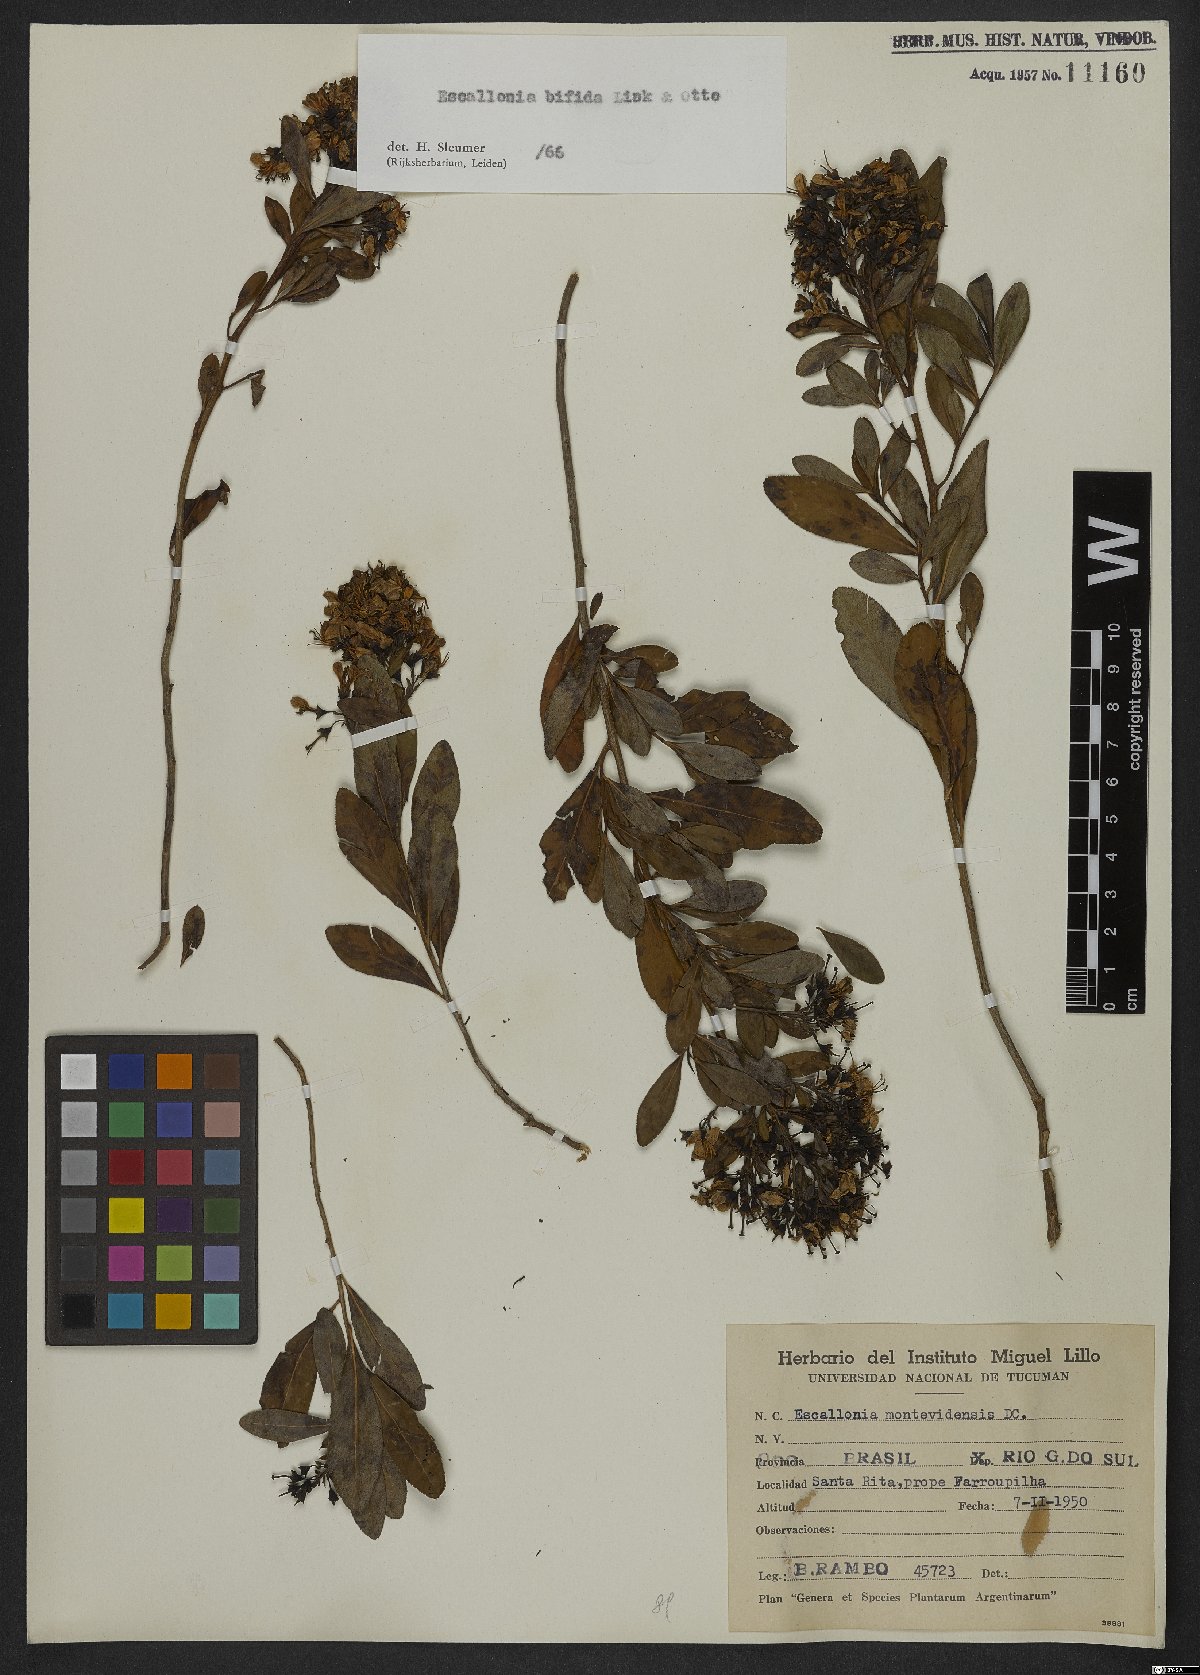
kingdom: Plantae
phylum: Tracheophyta
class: Magnoliopsida
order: Escalloniales
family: Escalloniaceae
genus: Escallonia
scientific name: Escallonia bifida
